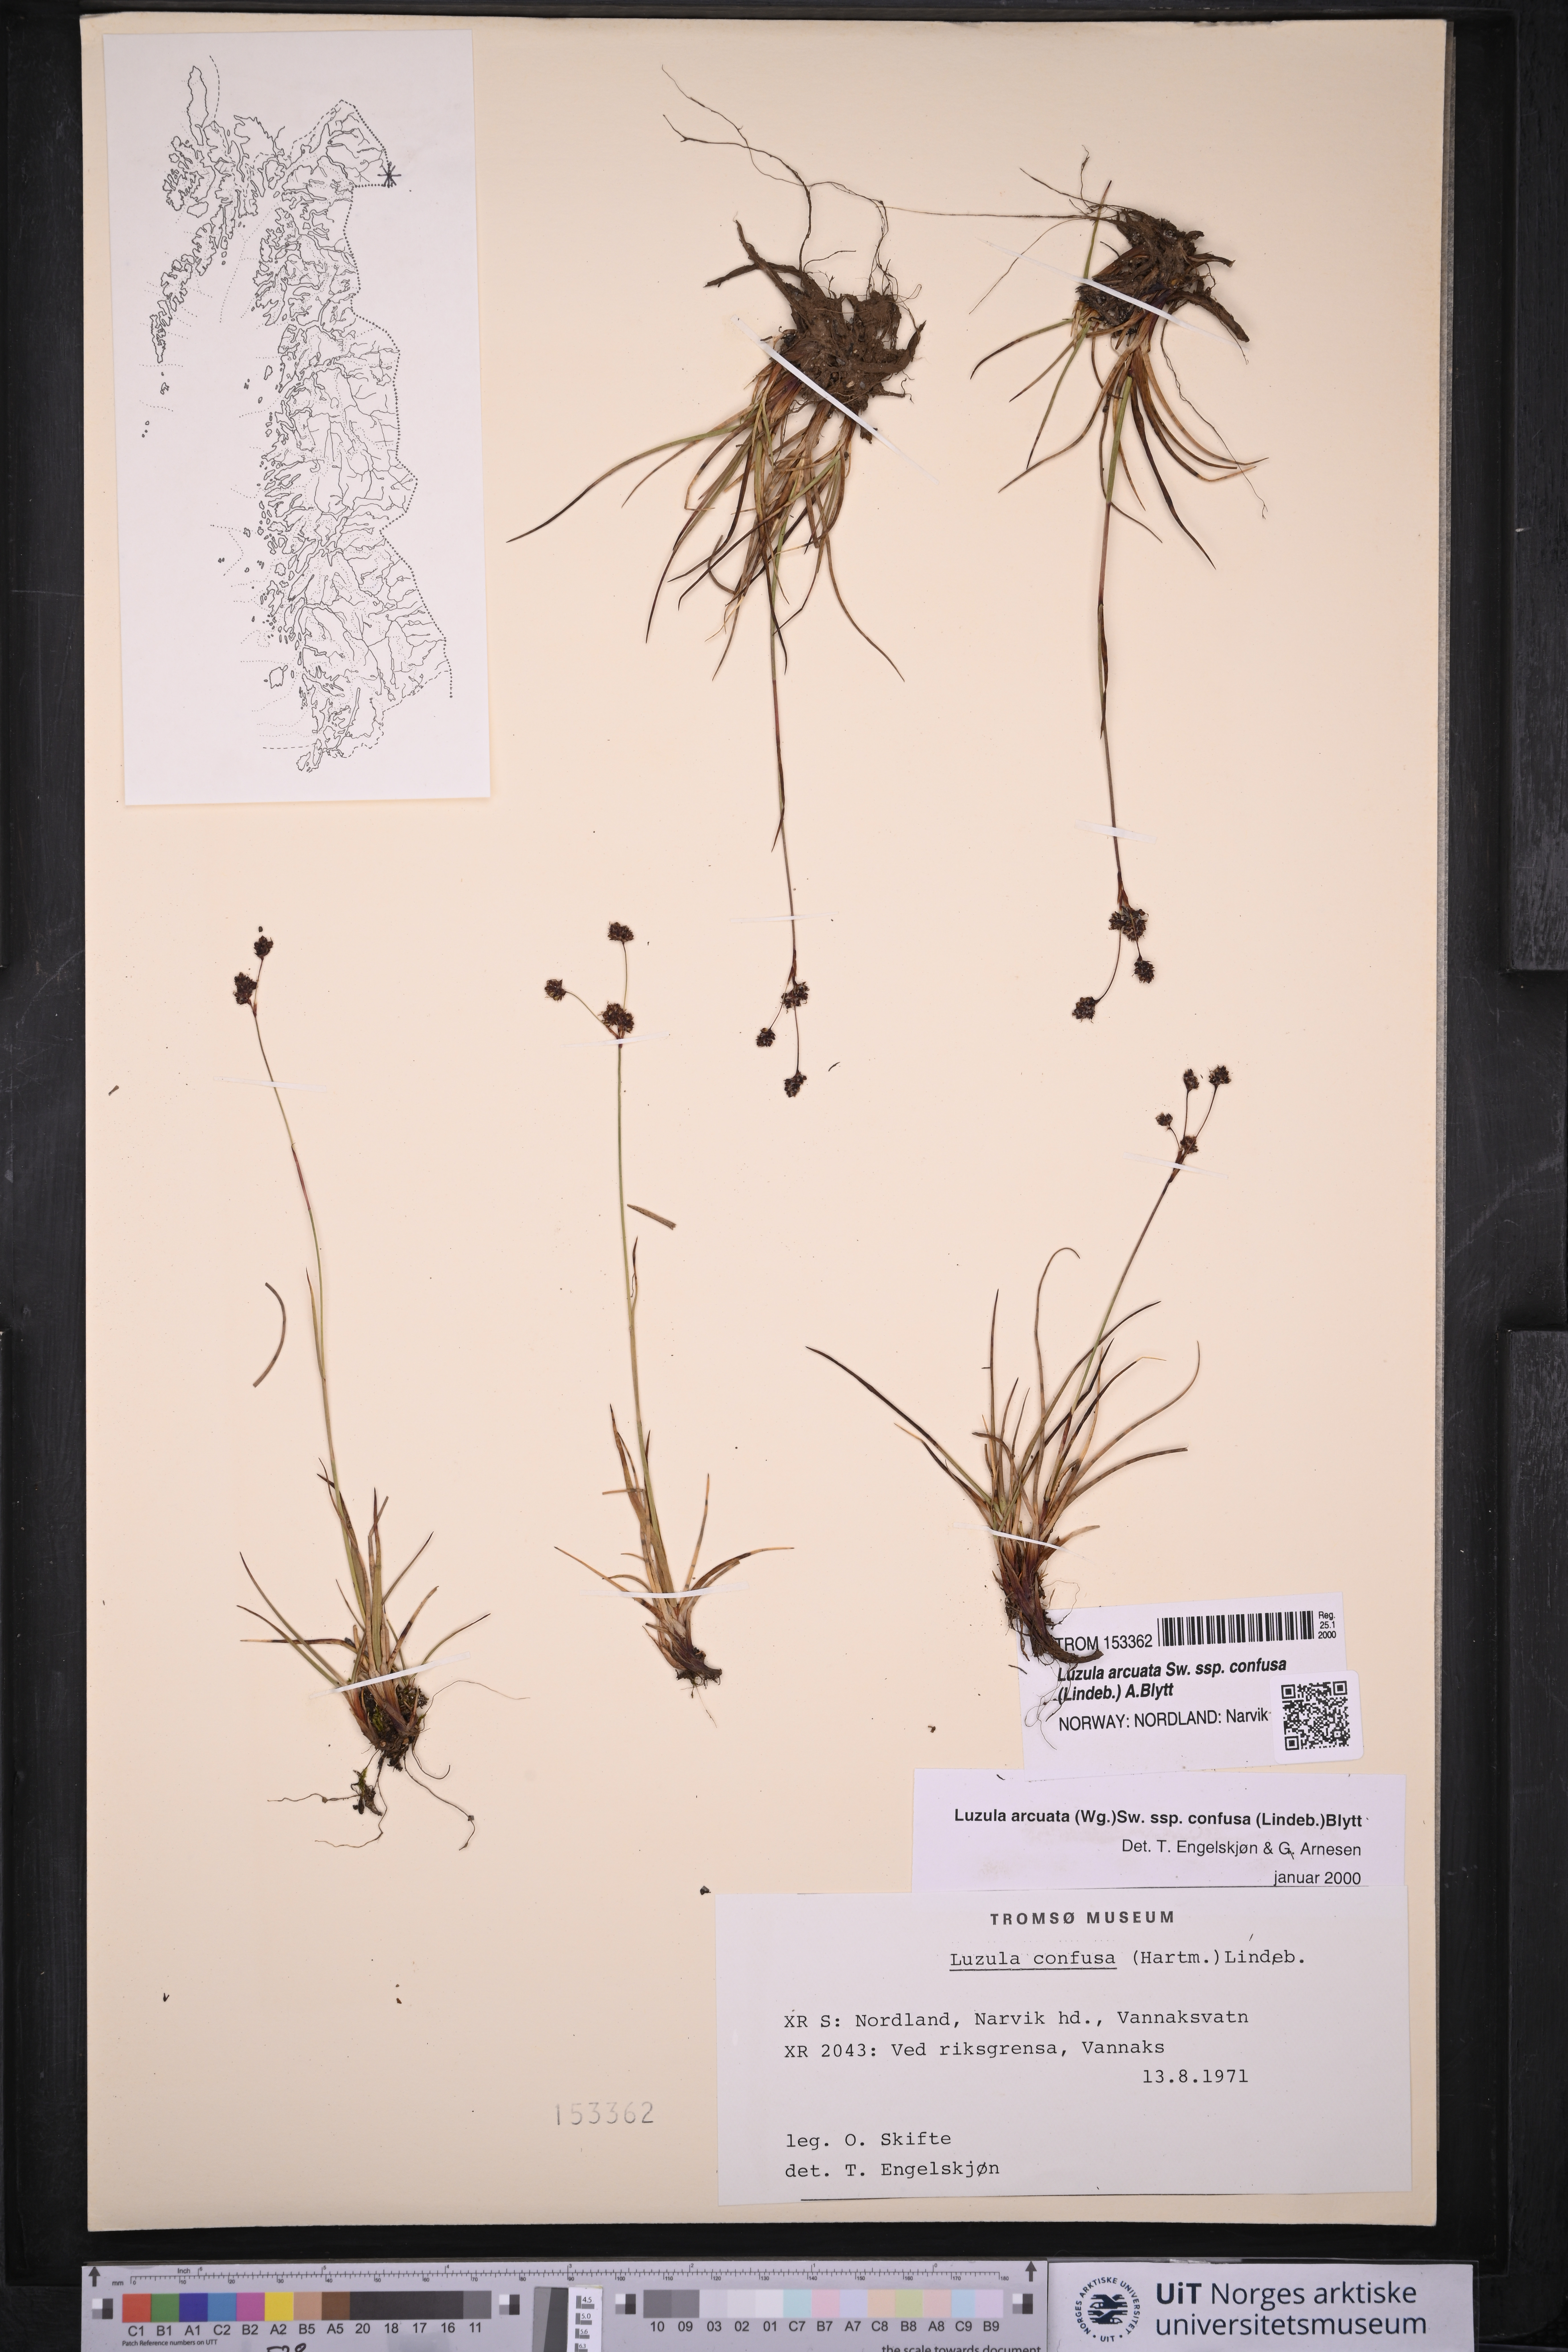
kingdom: Plantae
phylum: Tracheophyta
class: Liliopsida
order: Poales
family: Juncaceae
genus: Luzula
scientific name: Luzula confusa
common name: Northern wood rush
